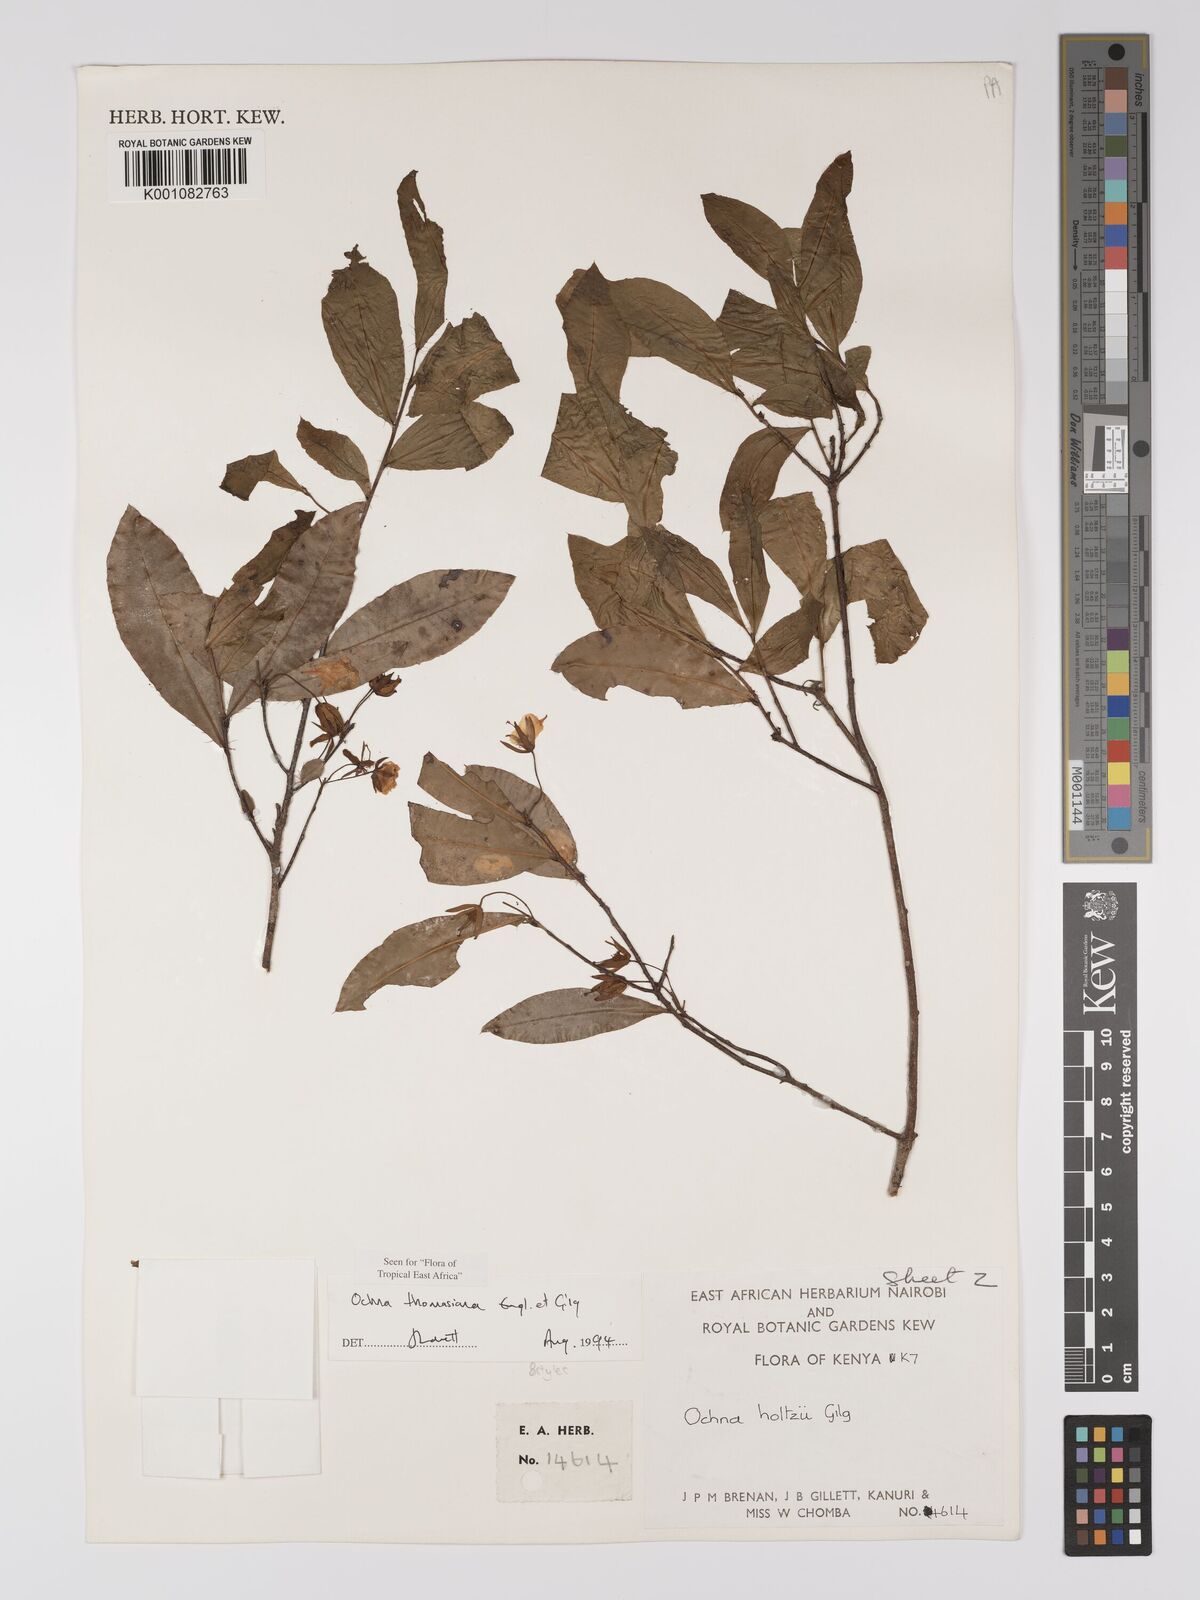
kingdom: Plantae
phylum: Tracheophyta
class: Magnoliopsida
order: Malpighiales
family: Ochnaceae
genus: Ochna
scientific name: Ochna thomasiana
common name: Thomas' bird's-eye bush
